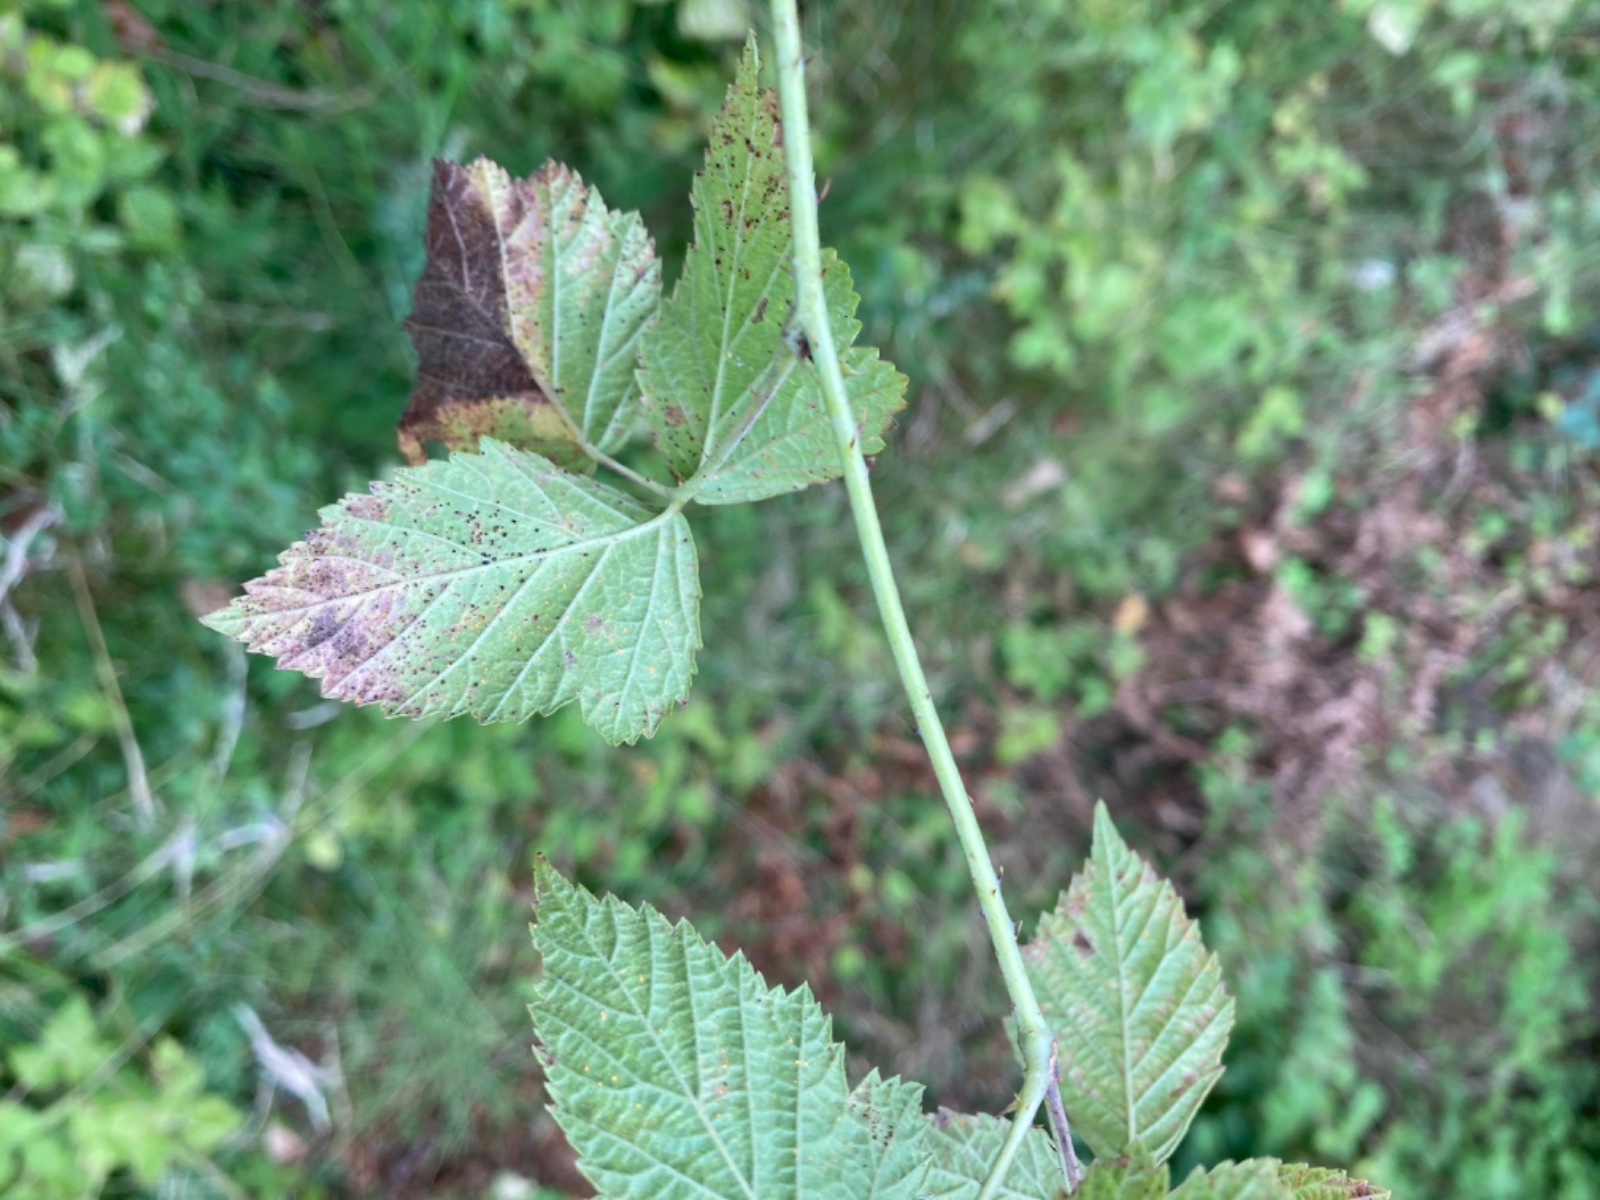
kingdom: Fungi
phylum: Basidiomycota
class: Pucciniomycetes
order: Pucciniales
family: Phragmidiaceae
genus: Phragmidium
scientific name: Phragmidium bulbosum
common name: brombær-flercellerust
